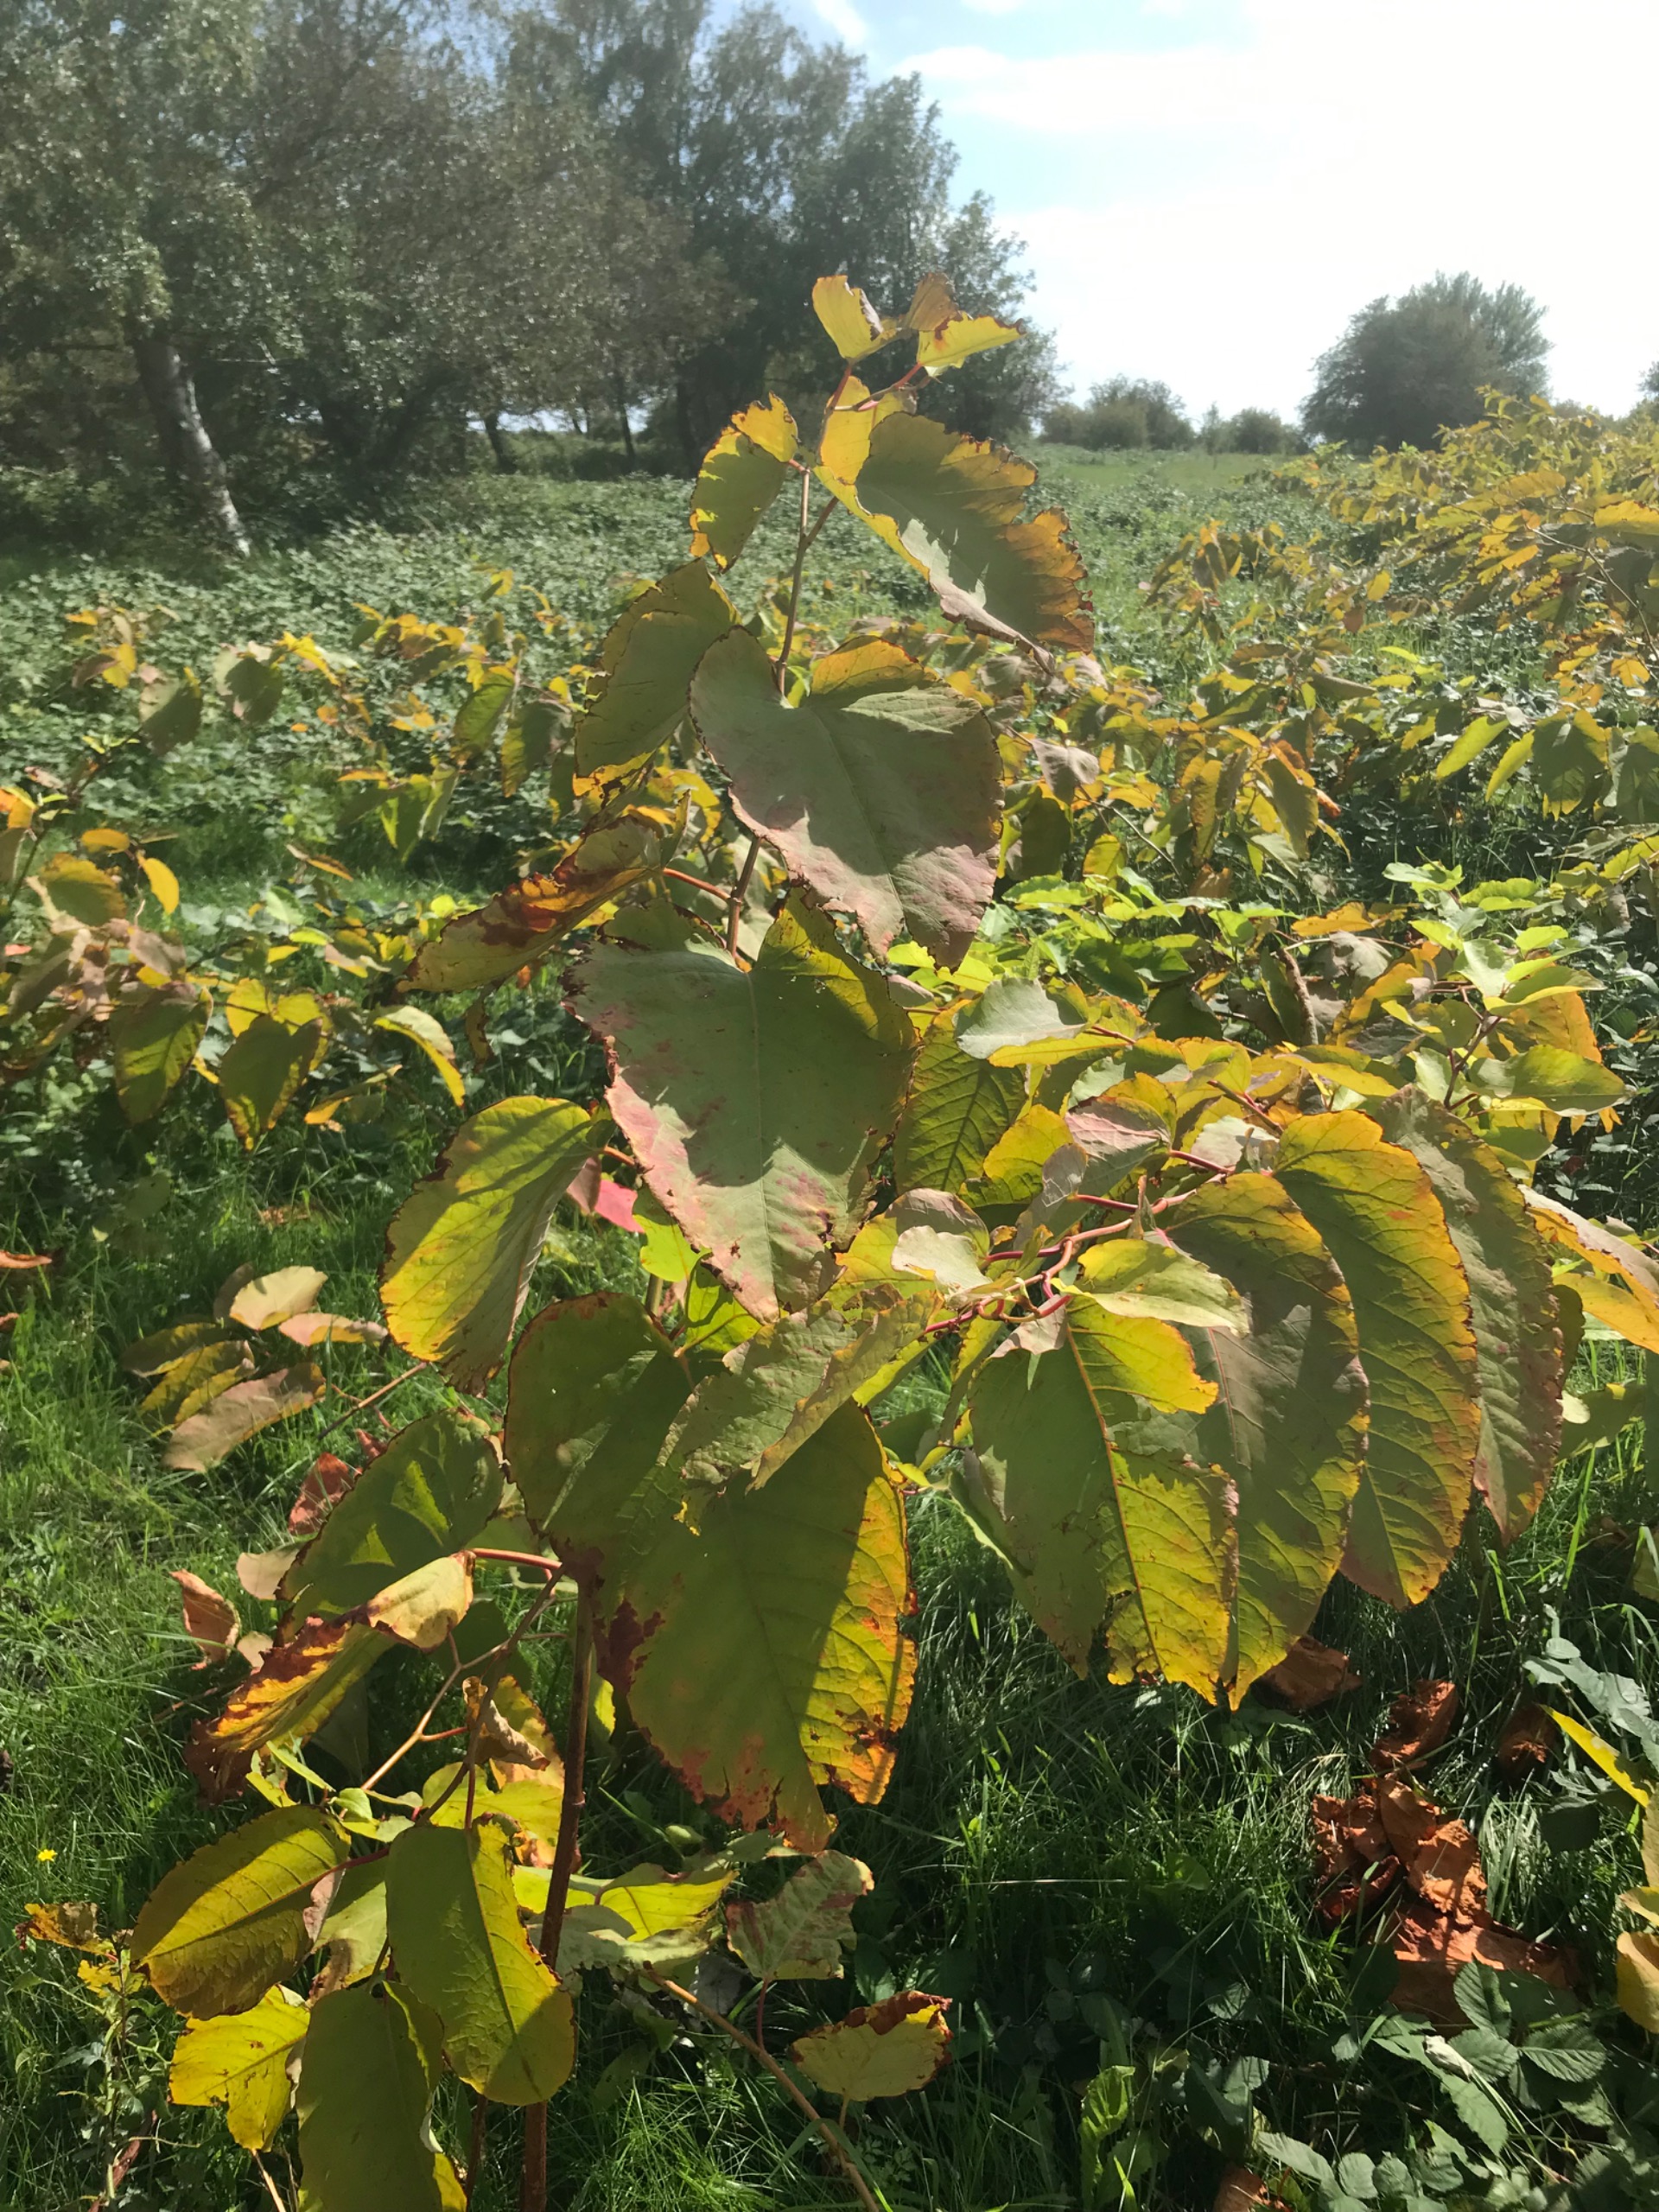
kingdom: Plantae
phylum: Tracheophyta
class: Magnoliopsida
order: Caryophyllales
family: Polygonaceae
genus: Reynoutria
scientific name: Reynoutria sachalinensis
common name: Kæmpe-pileurt
